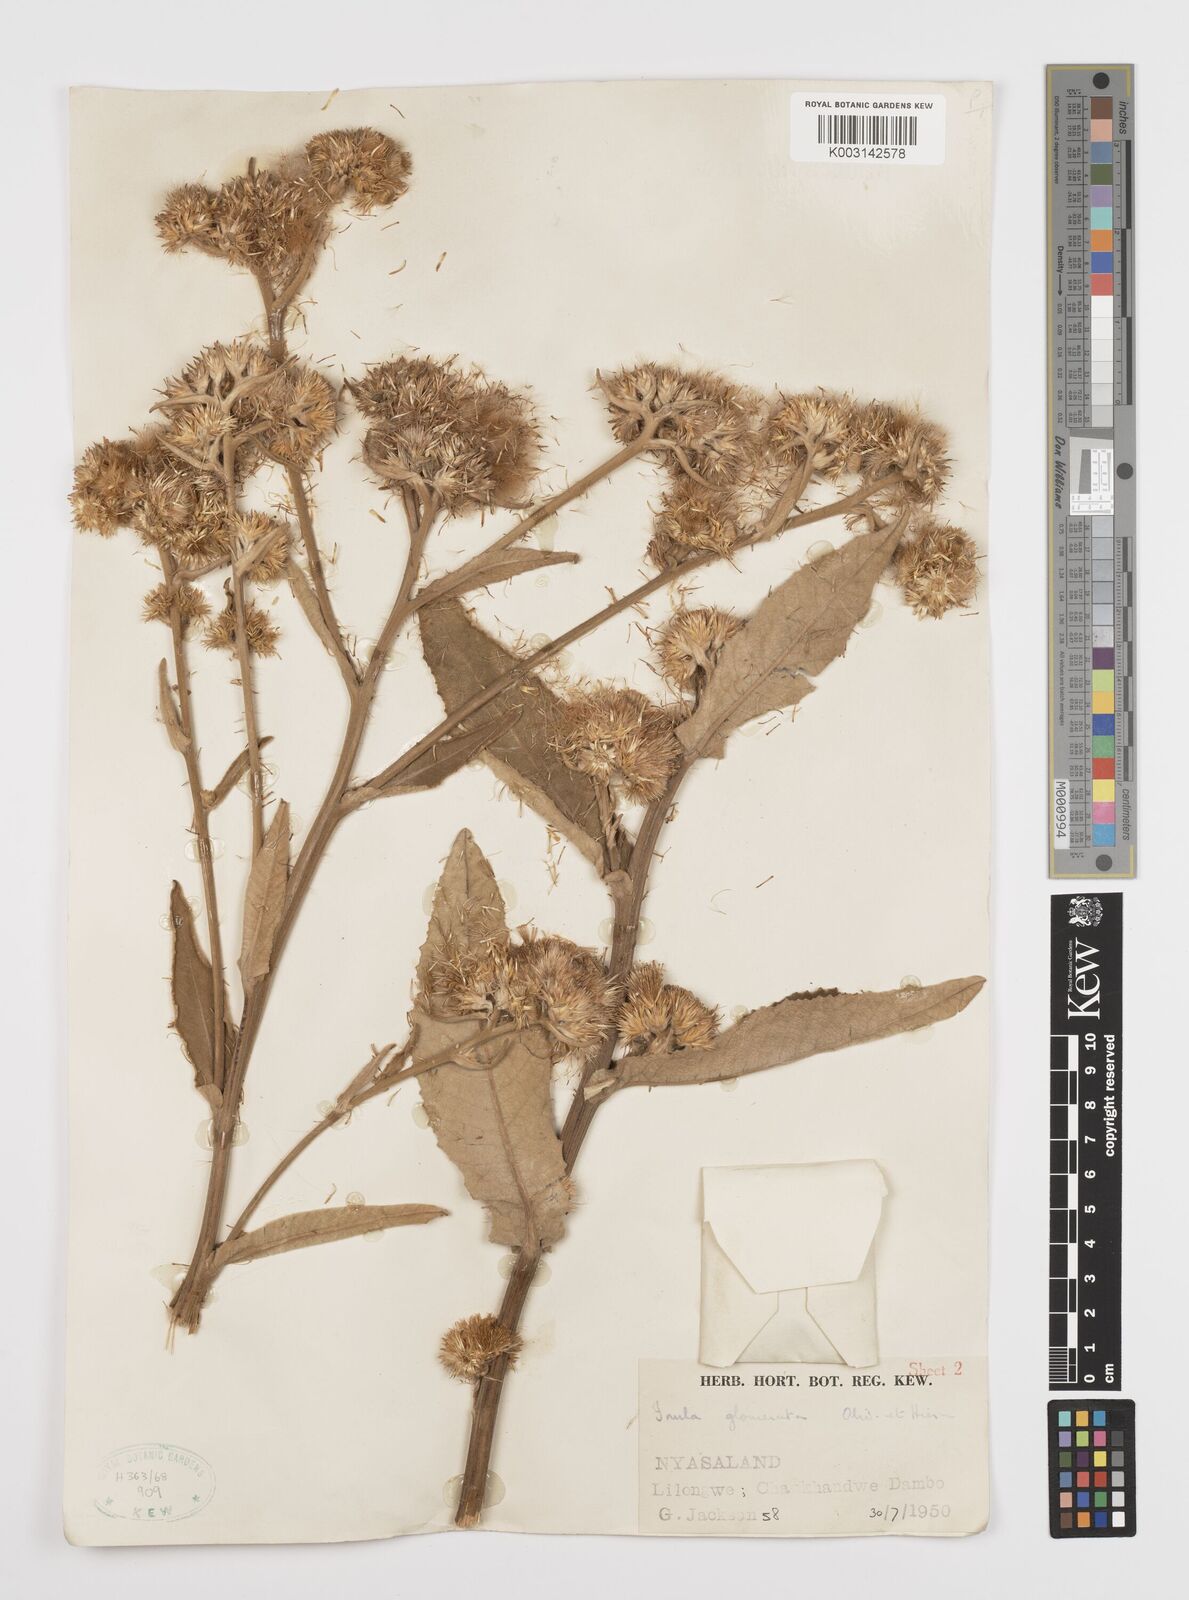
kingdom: Plantae
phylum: Tracheophyta
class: Magnoliopsida
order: Asterales
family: Asteraceae
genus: Inula
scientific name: Inula glomerata
